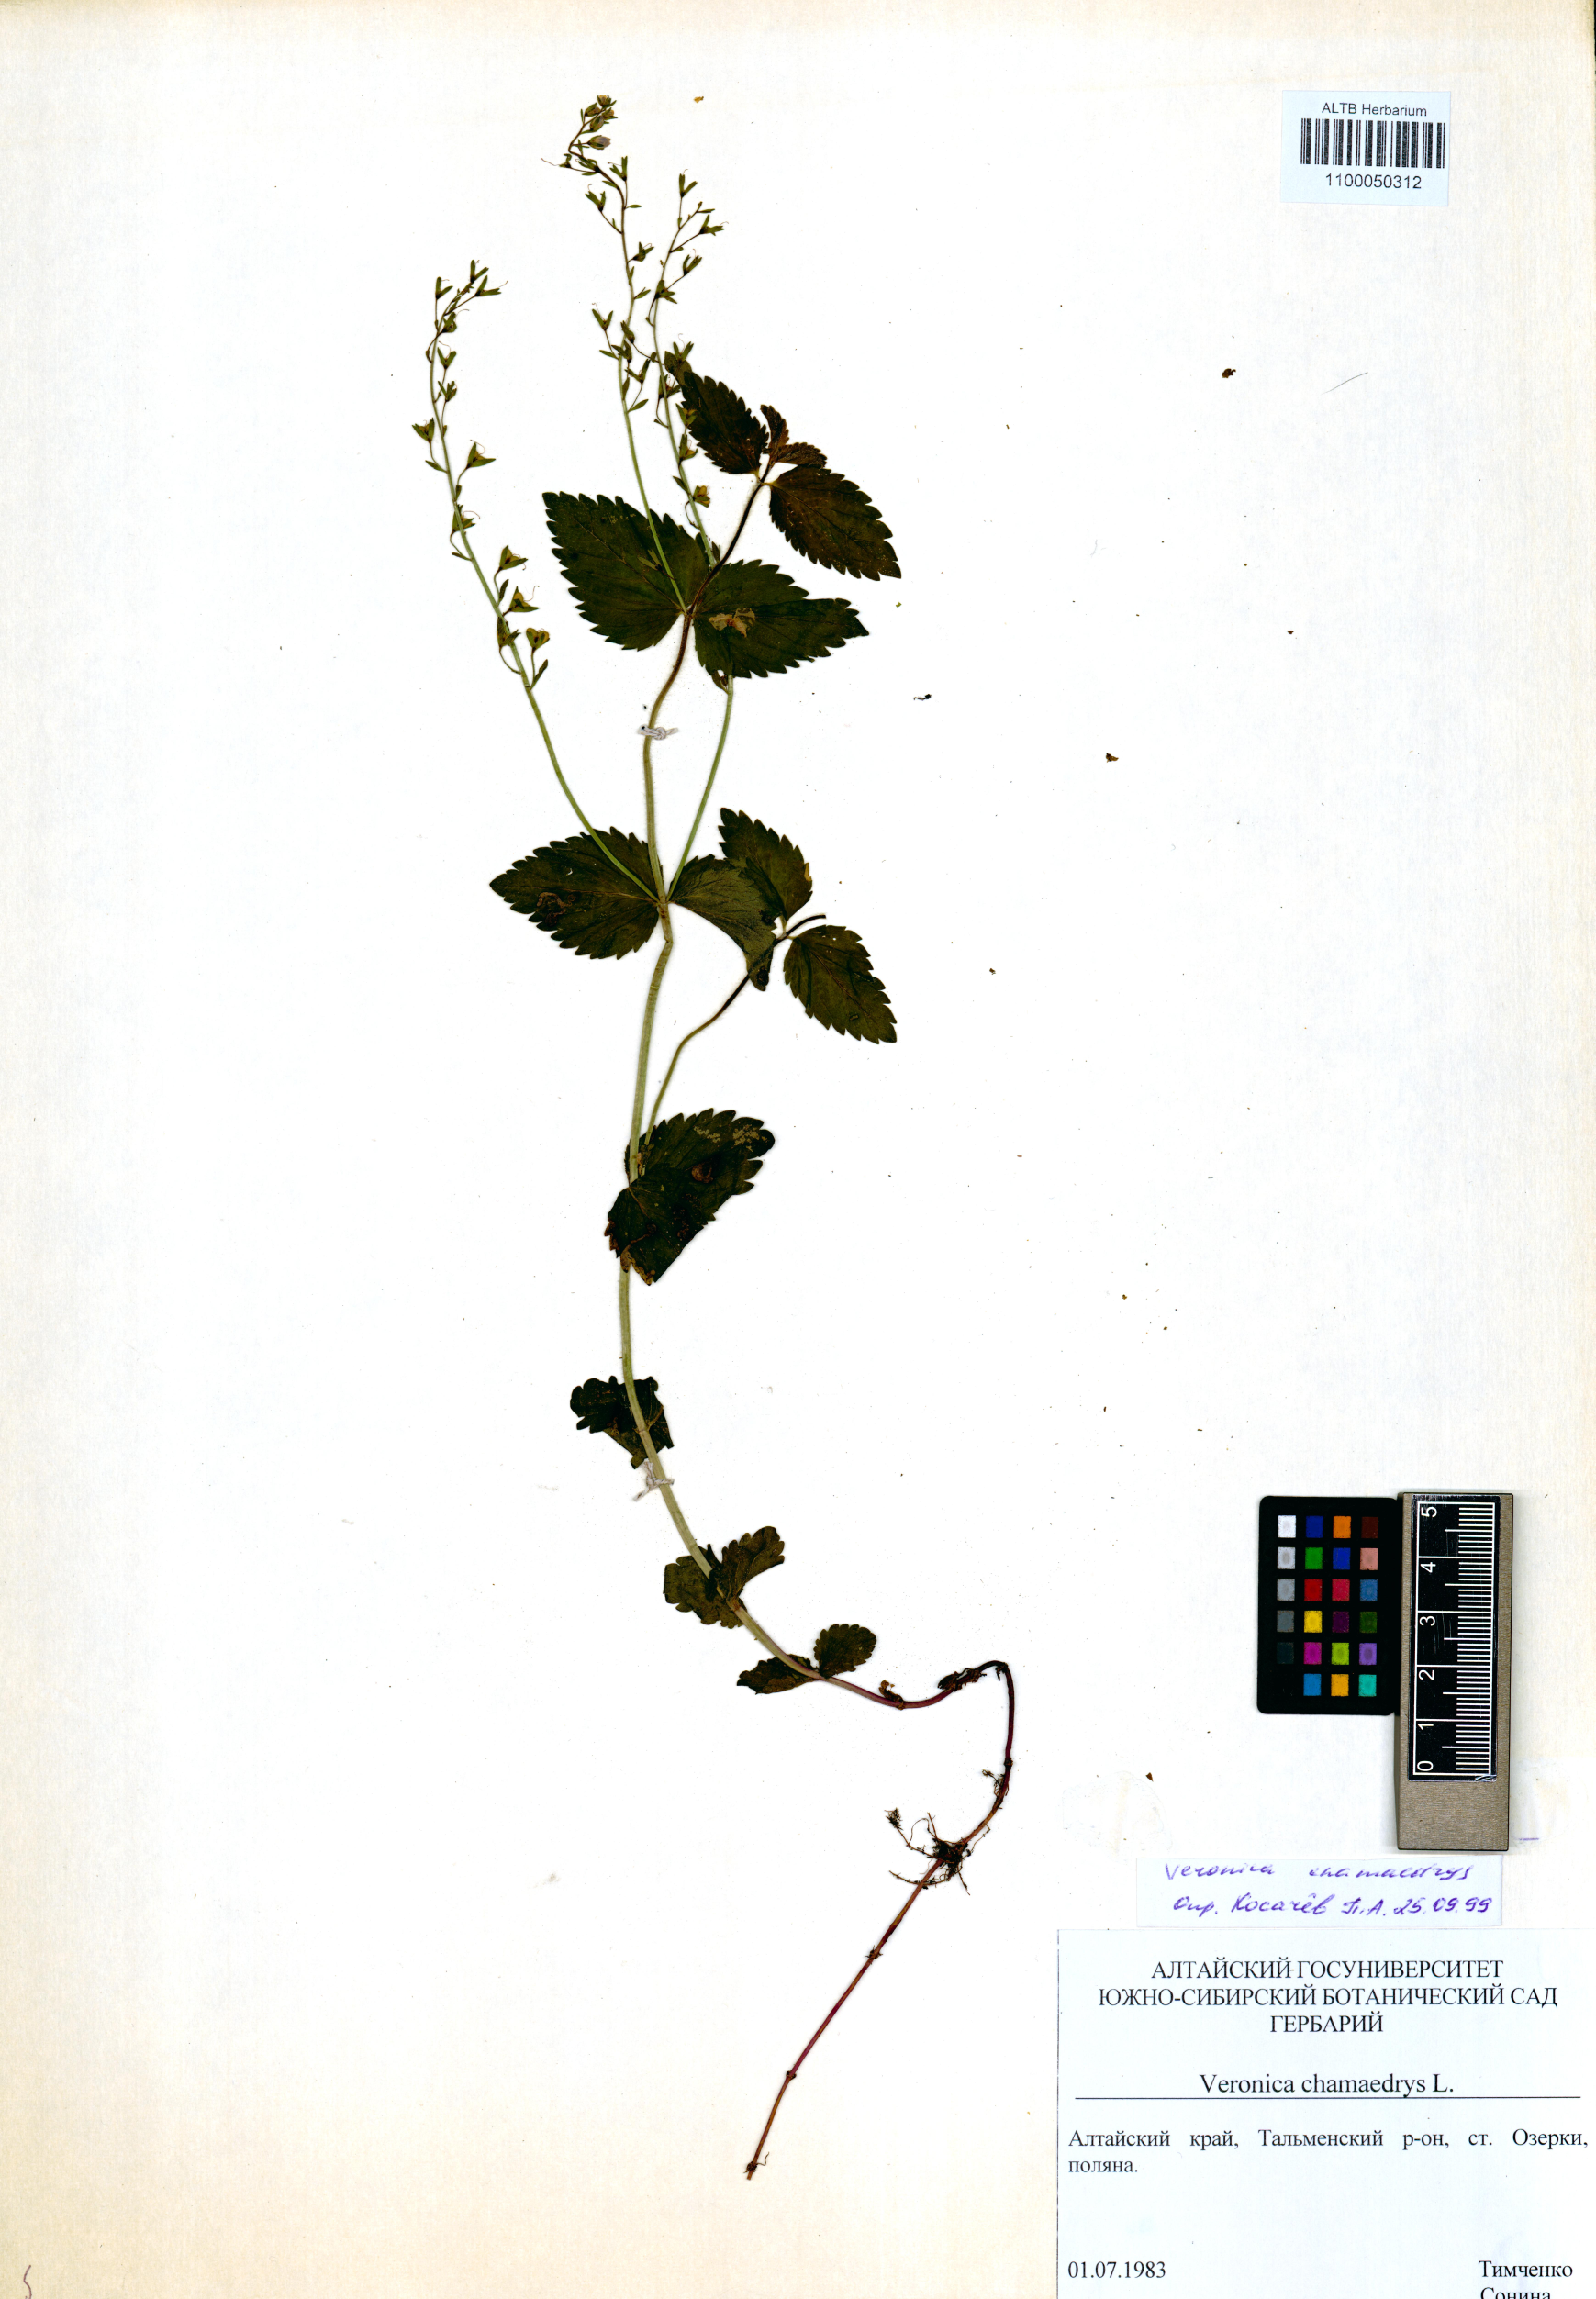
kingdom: Plantae
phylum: Tracheophyta
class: Magnoliopsida
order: Lamiales
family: Plantaginaceae
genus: Veronica
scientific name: Veronica chamaedrys
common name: Germander speedwell
